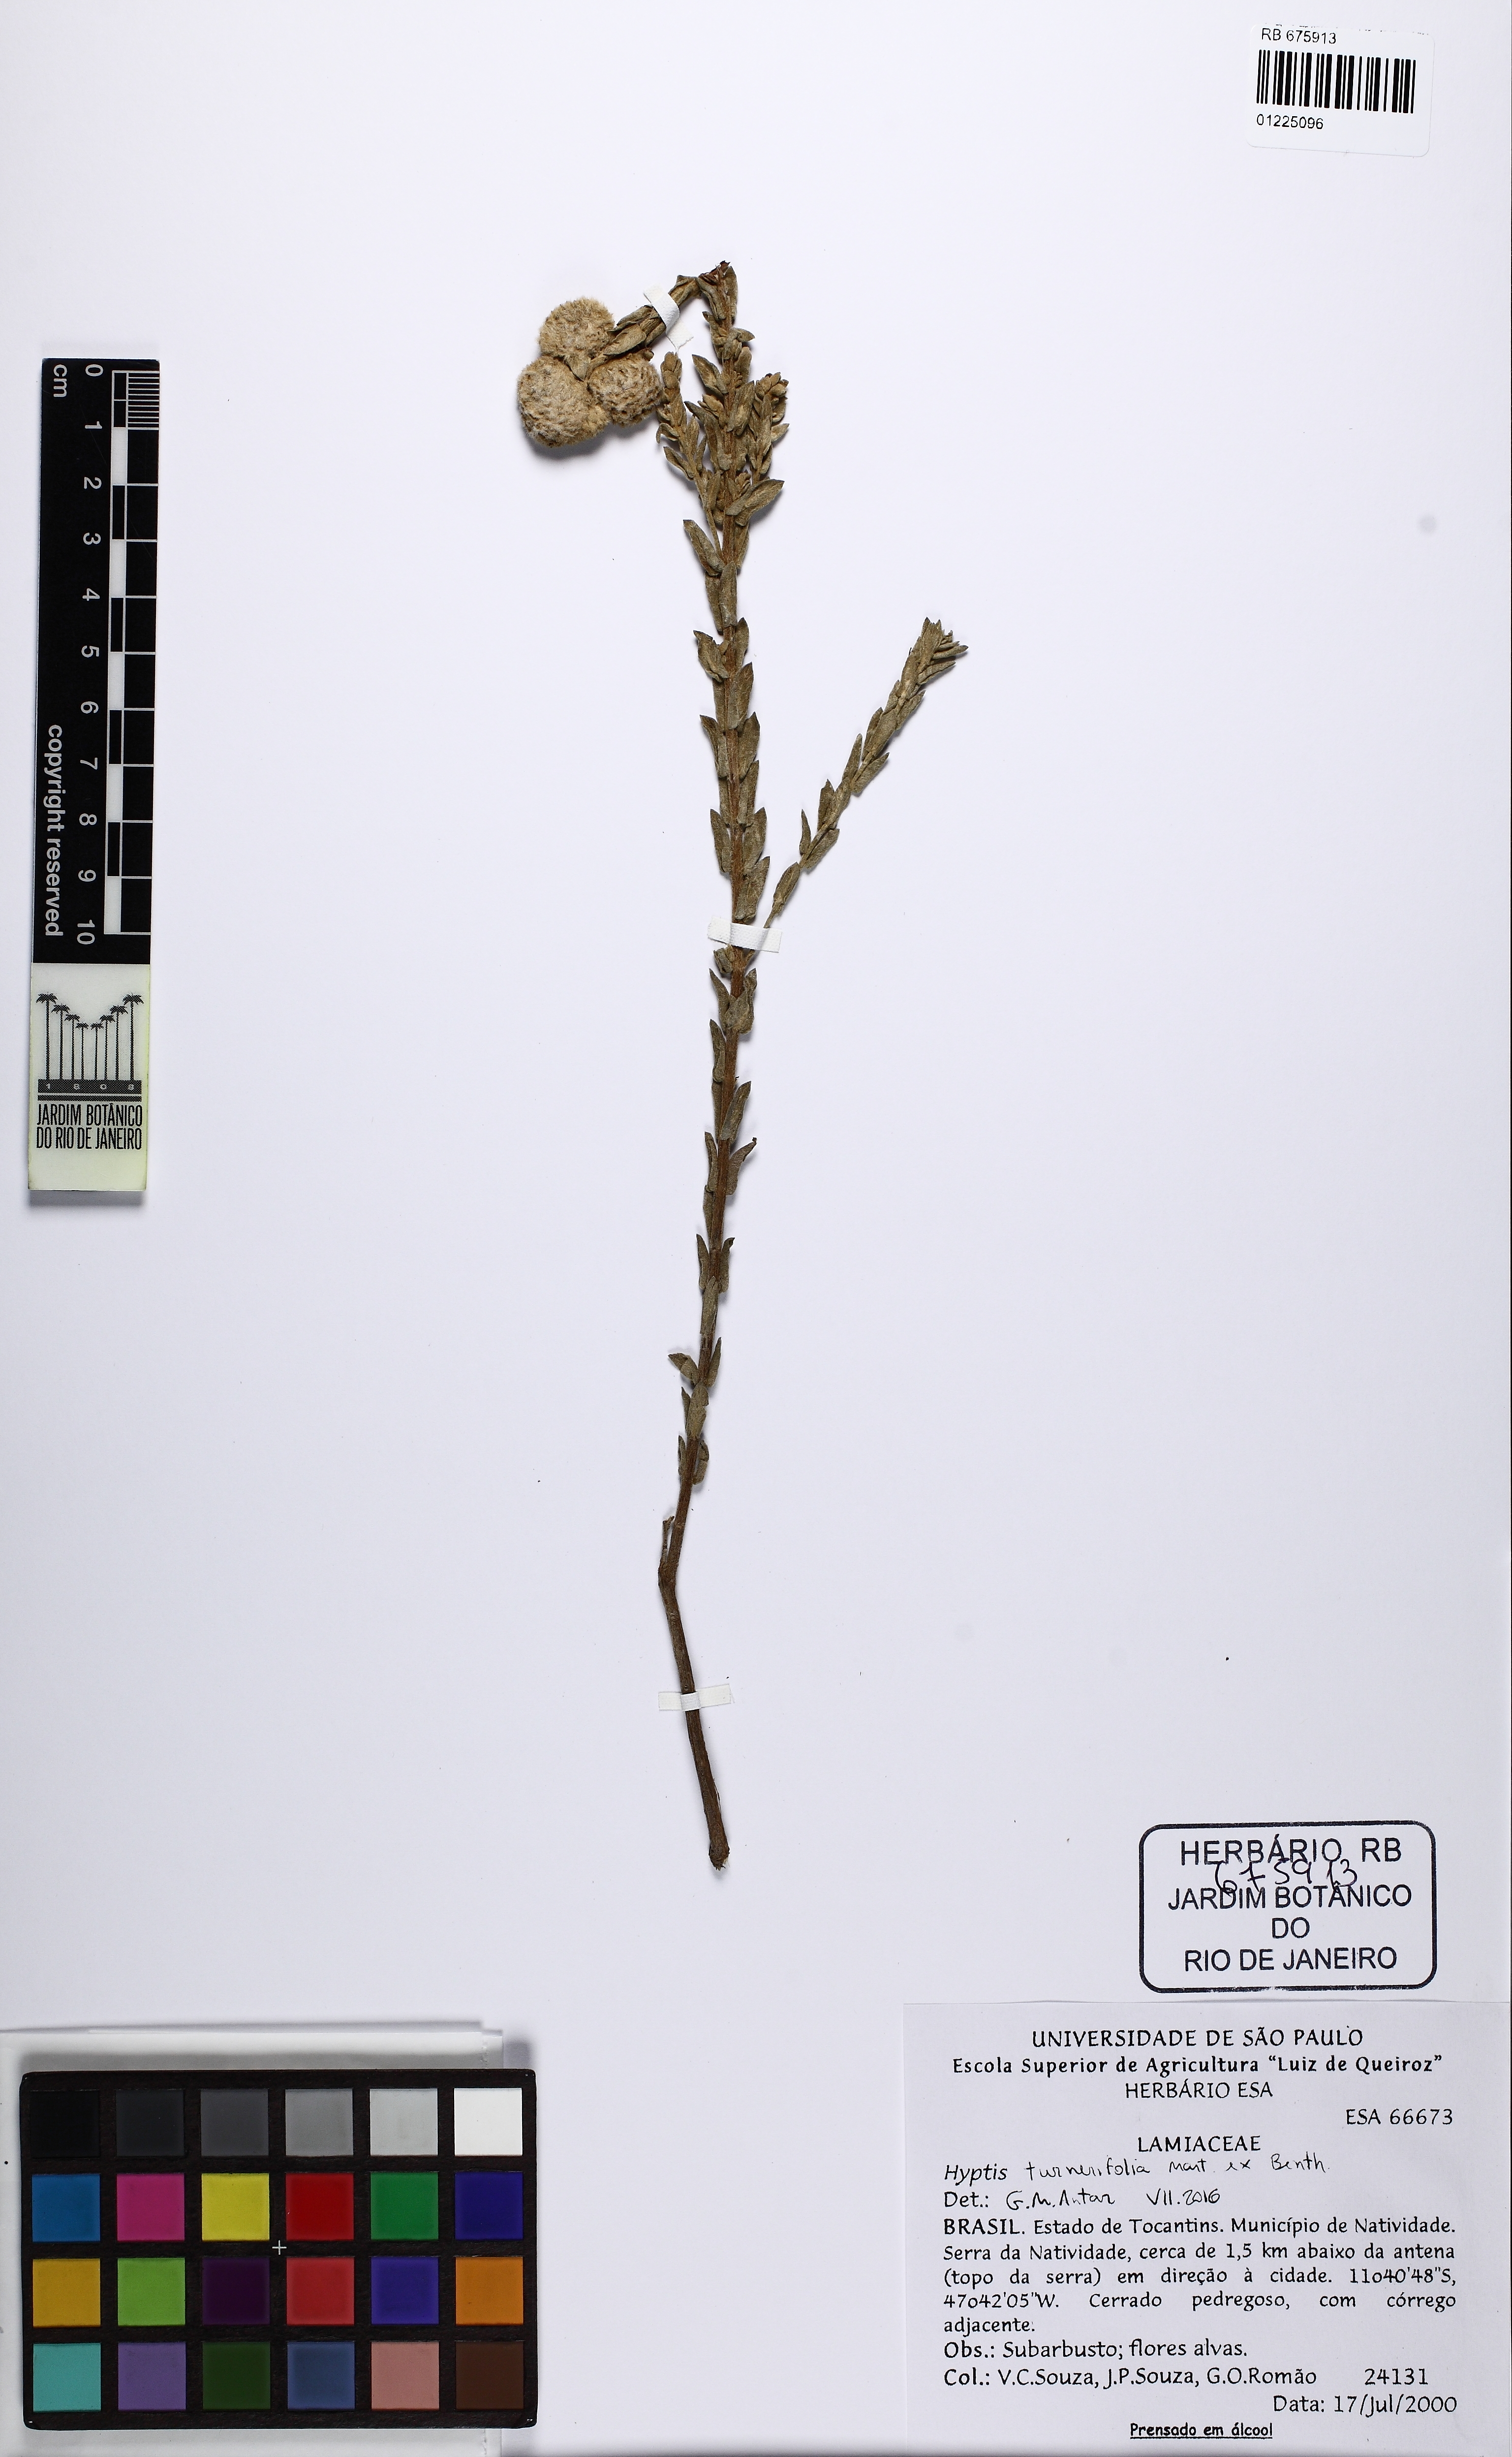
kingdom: Plantae
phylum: Tracheophyta
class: Magnoliopsida
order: Lamiales
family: Lamiaceae
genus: Hyptis
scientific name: Hyptis turnerifolia
